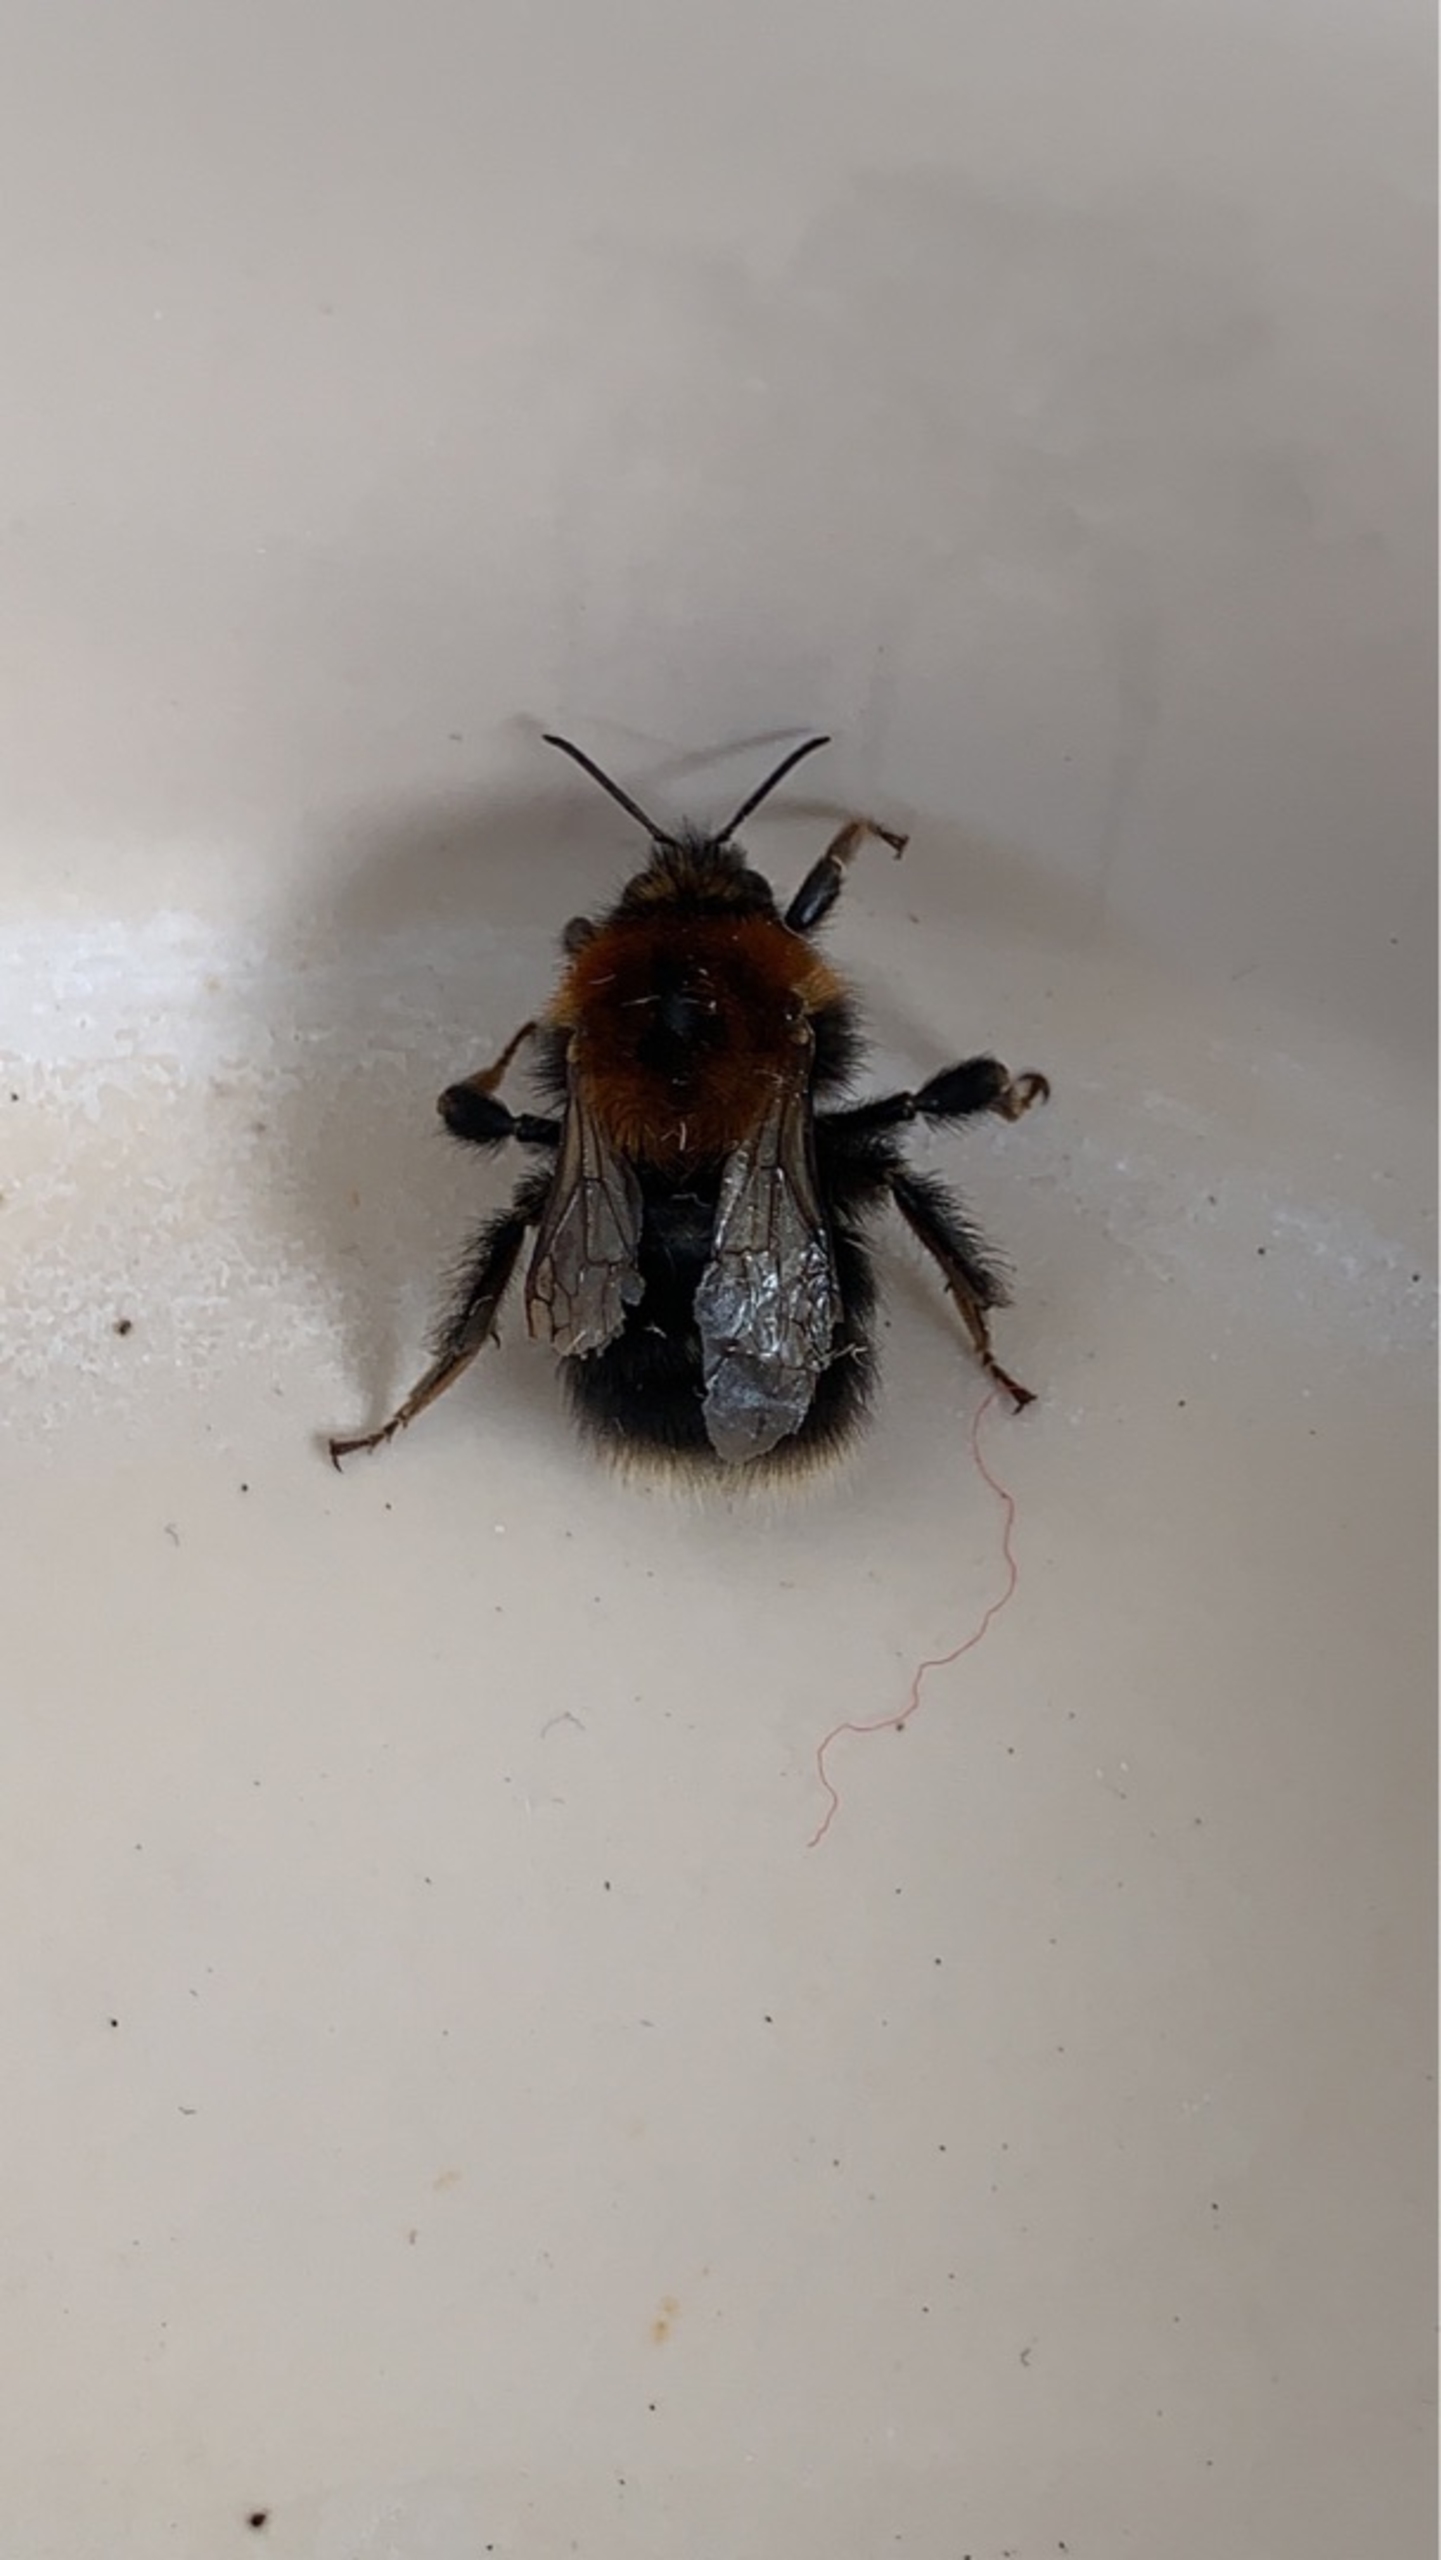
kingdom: Animalia
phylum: Arthropoda
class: Insecta
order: Hymenoptera
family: Apidae
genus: Bombus
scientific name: Bombus hypnorum
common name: Hushumle
